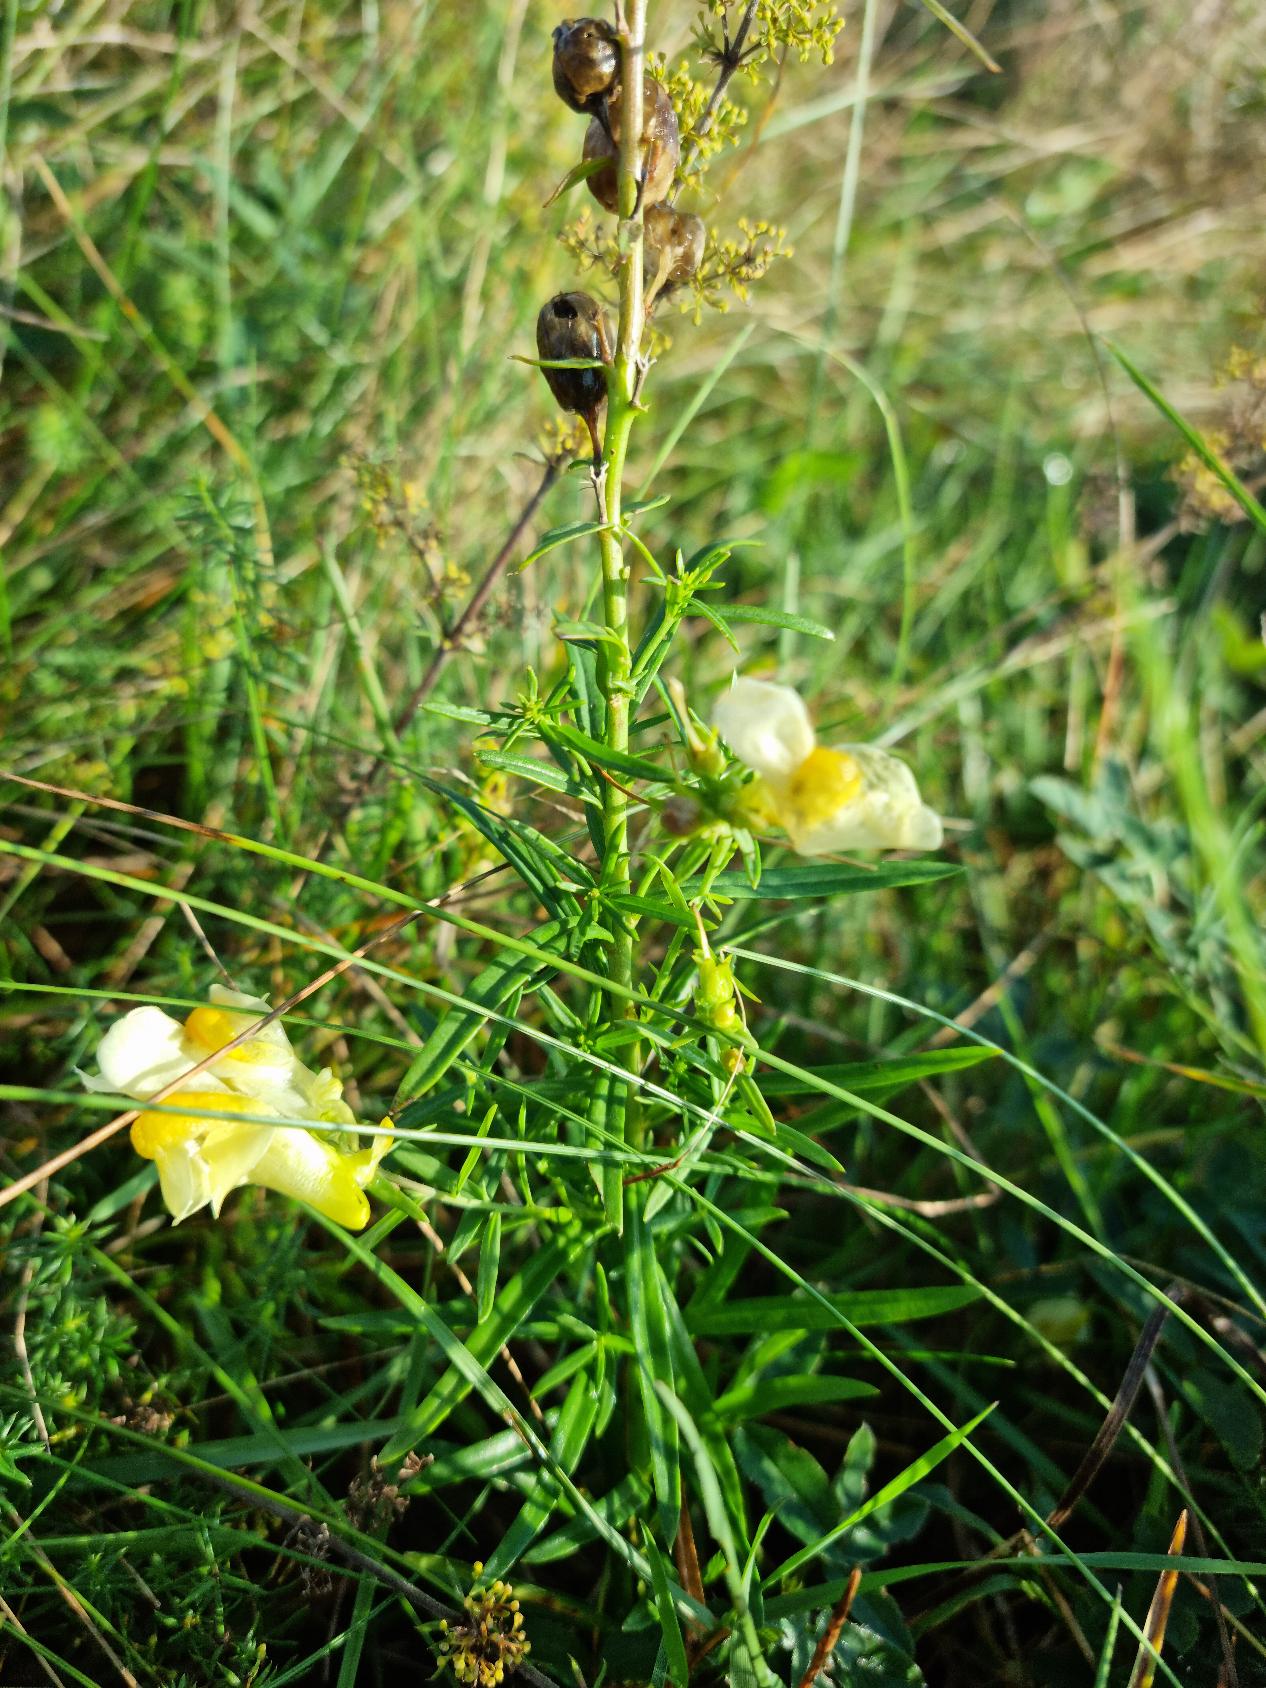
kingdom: Plantae
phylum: Tracheophyta
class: Magnoliopsida
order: Lamiales
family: Plantaginaceae
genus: Linaria
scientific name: Linaria vulgaris
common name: Almindelig torskemund
